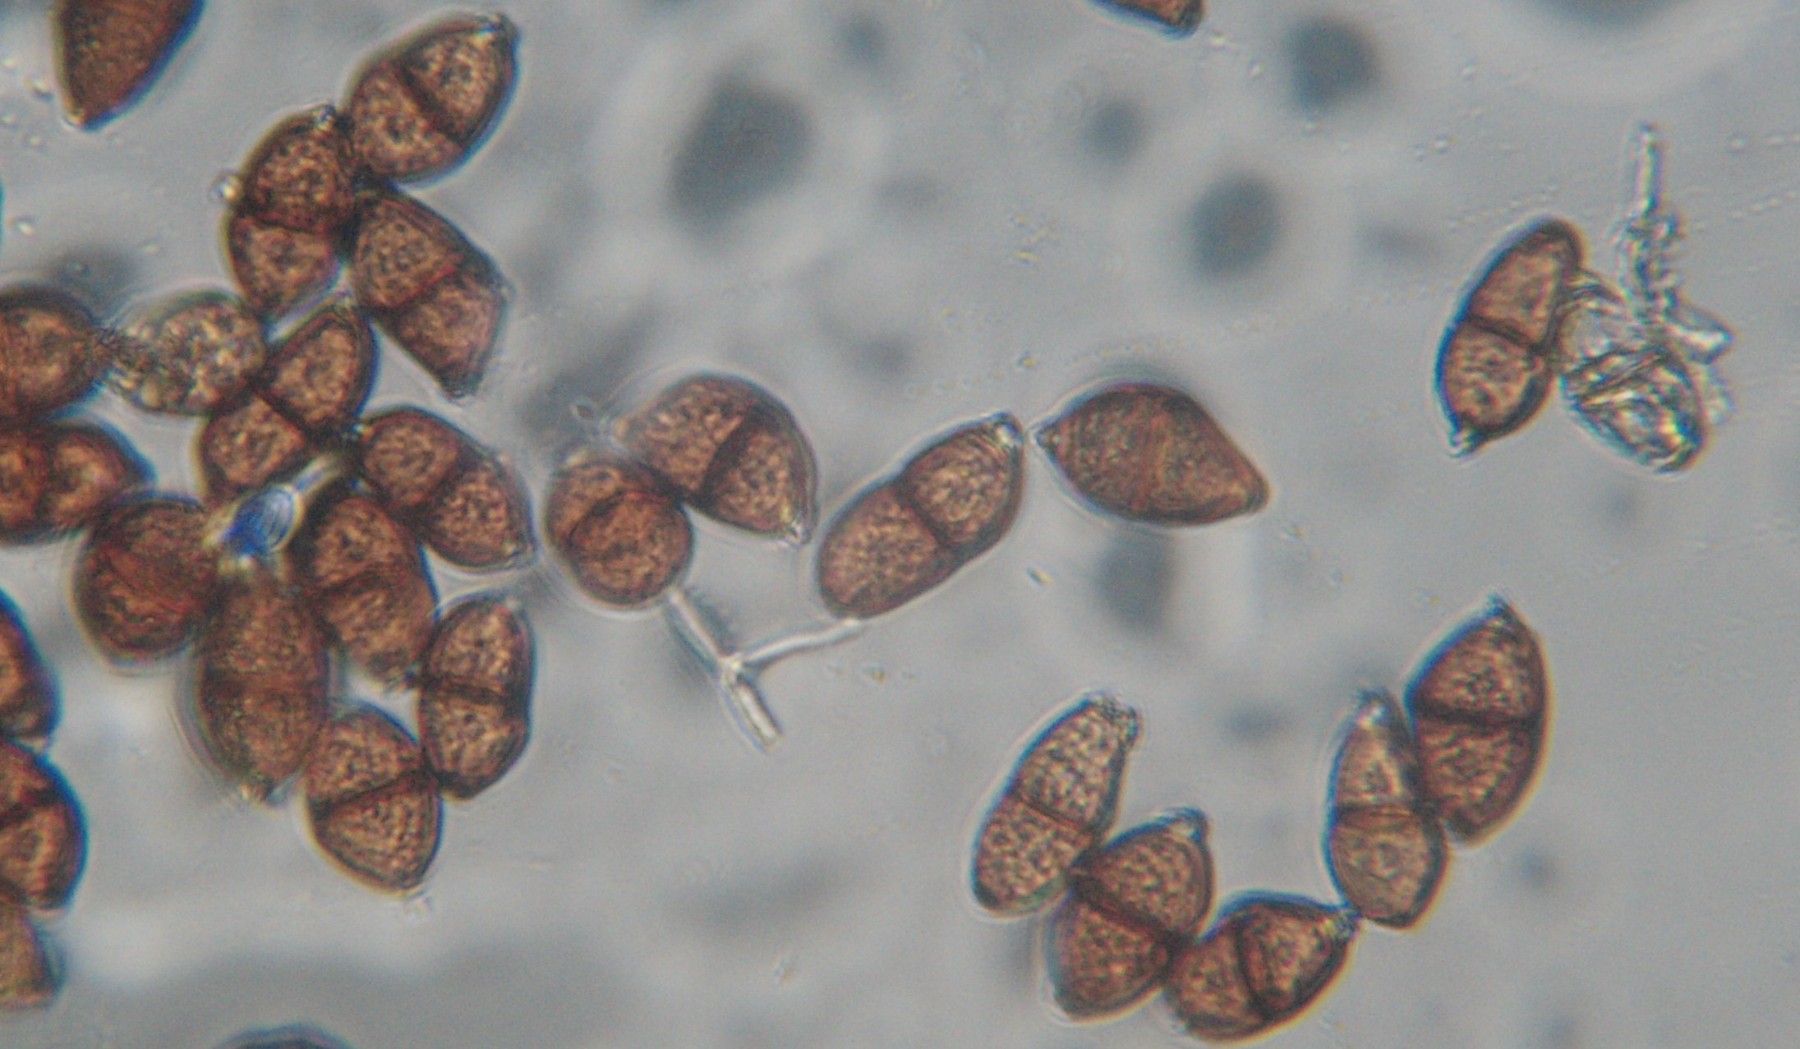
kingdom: Fungi
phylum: Basidiomycota
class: Pucciniomycetes
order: Pucciniales
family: Pucciniaceae
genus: Puccinia
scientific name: Puccinia
